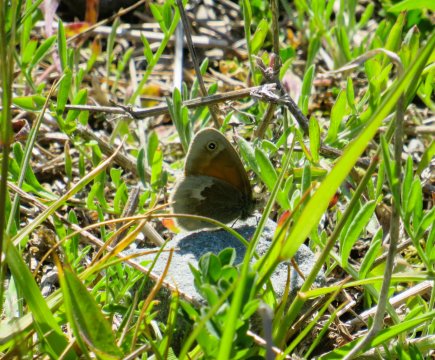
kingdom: Animalia
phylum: Arthropoda
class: Insecta
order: Lepidoptera
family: Nymphalidae
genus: Coenonympha
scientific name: Coenonympha tullia
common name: Large Heath
